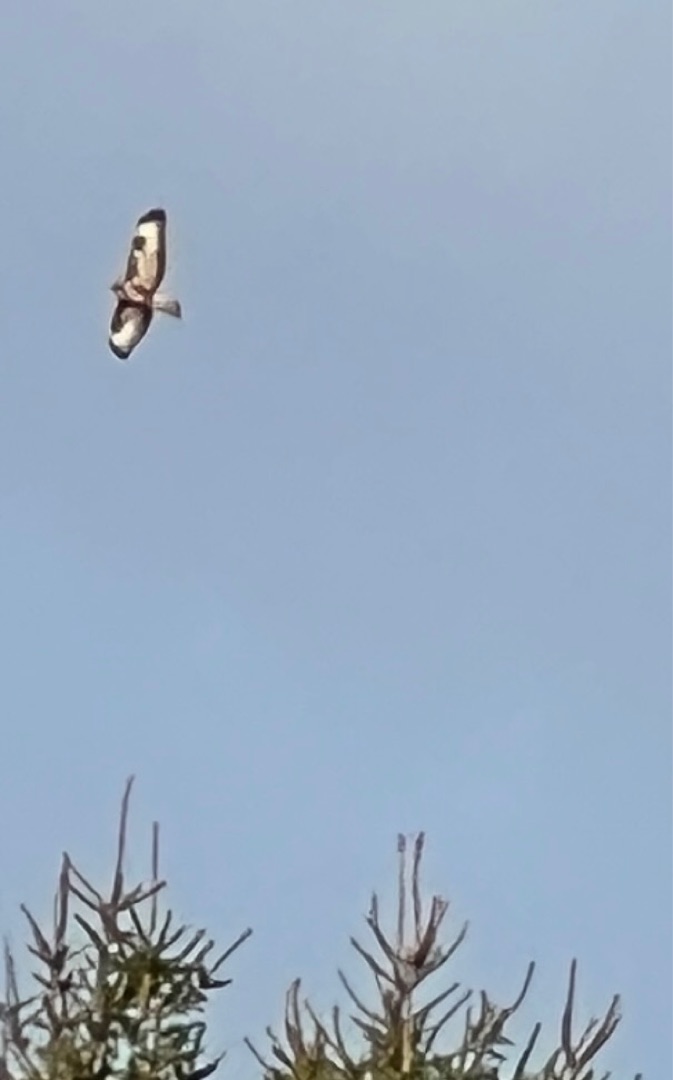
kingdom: Animalia
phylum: Chordata
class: Aves
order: Accipitriformes
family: Accipitridae
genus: Buteo
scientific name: Buteo lagopus
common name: Fjeldvåge
